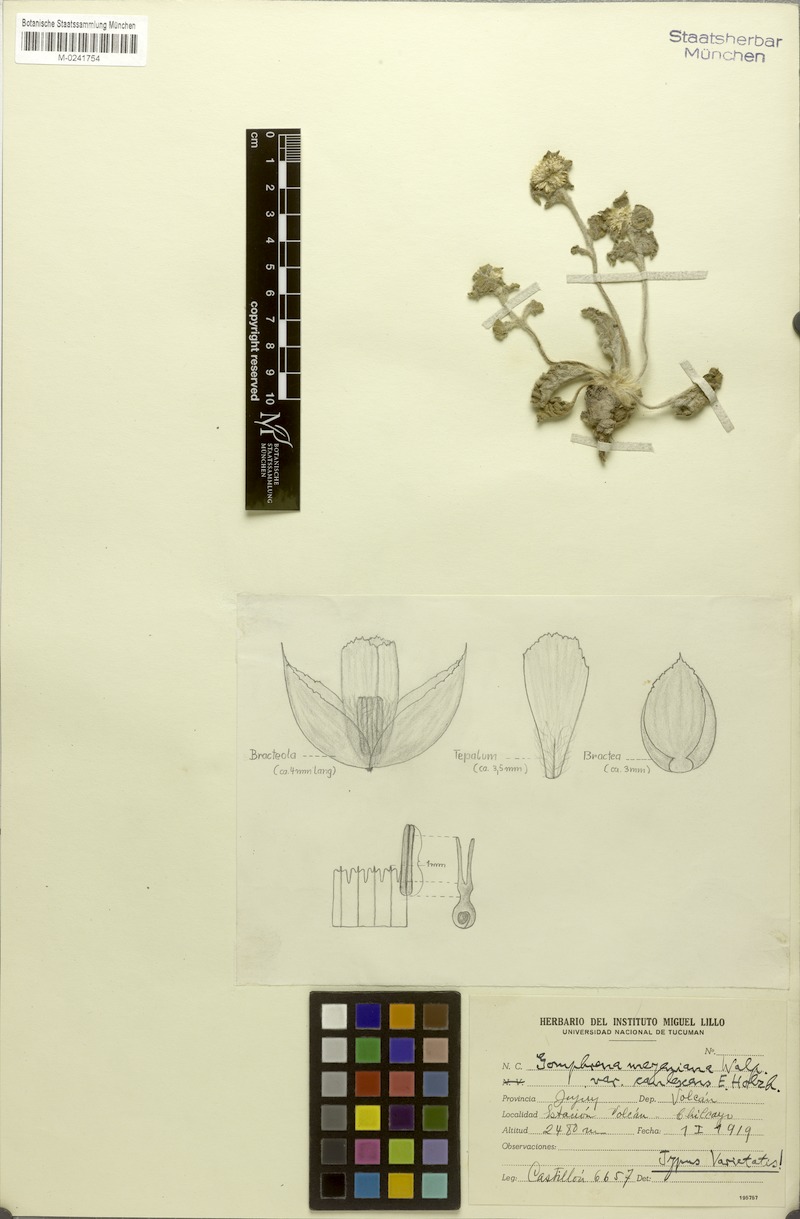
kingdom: Plantae
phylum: Tracheophyta
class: Magnoliopsida
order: Caryophyllales
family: Amaranthaceae
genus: Gomphrena
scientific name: Gomphrena meyeniana
